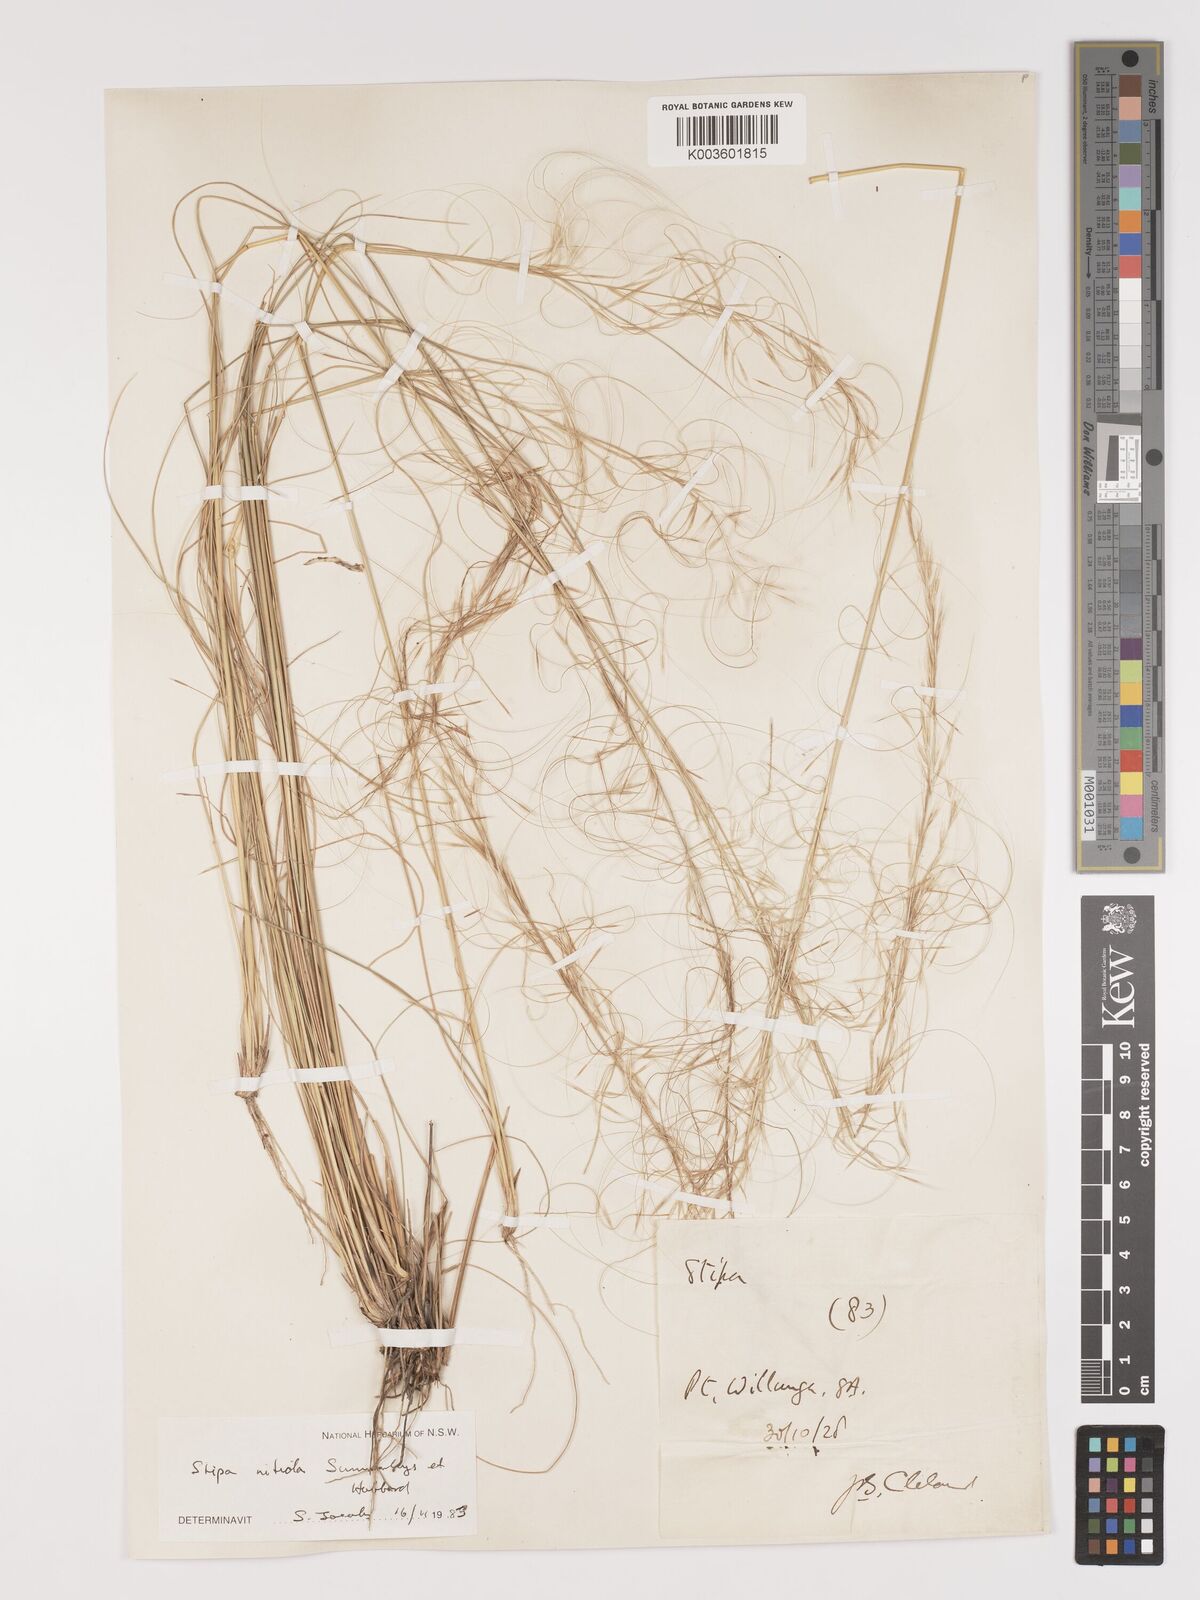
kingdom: Plantae
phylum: Tracheophyta
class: Liliopsida
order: Poales
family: Poaceae
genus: Austrostipa
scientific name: Austrostipa nitida
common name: Balcarra grass
